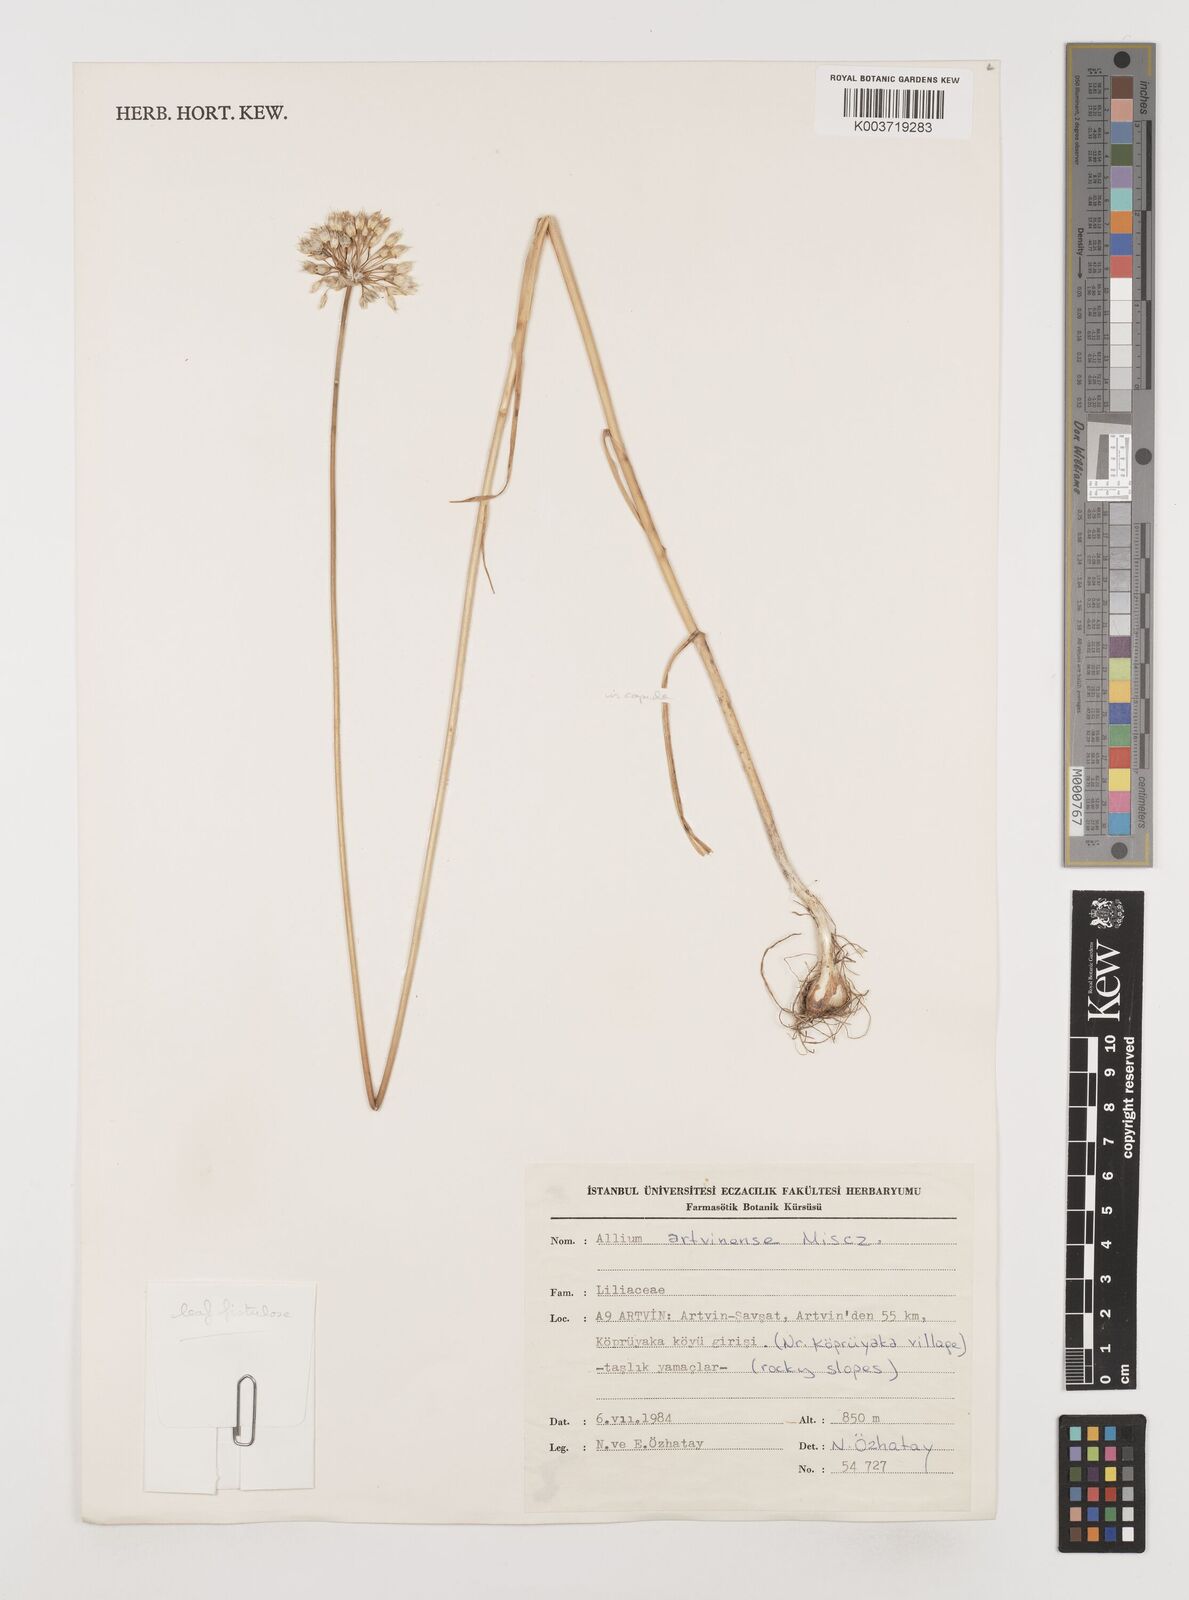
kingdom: Plantae
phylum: Tracheophyta
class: Liliopsida
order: Asparagales
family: Amaryllidaceae
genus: Allium
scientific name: Allium affine
